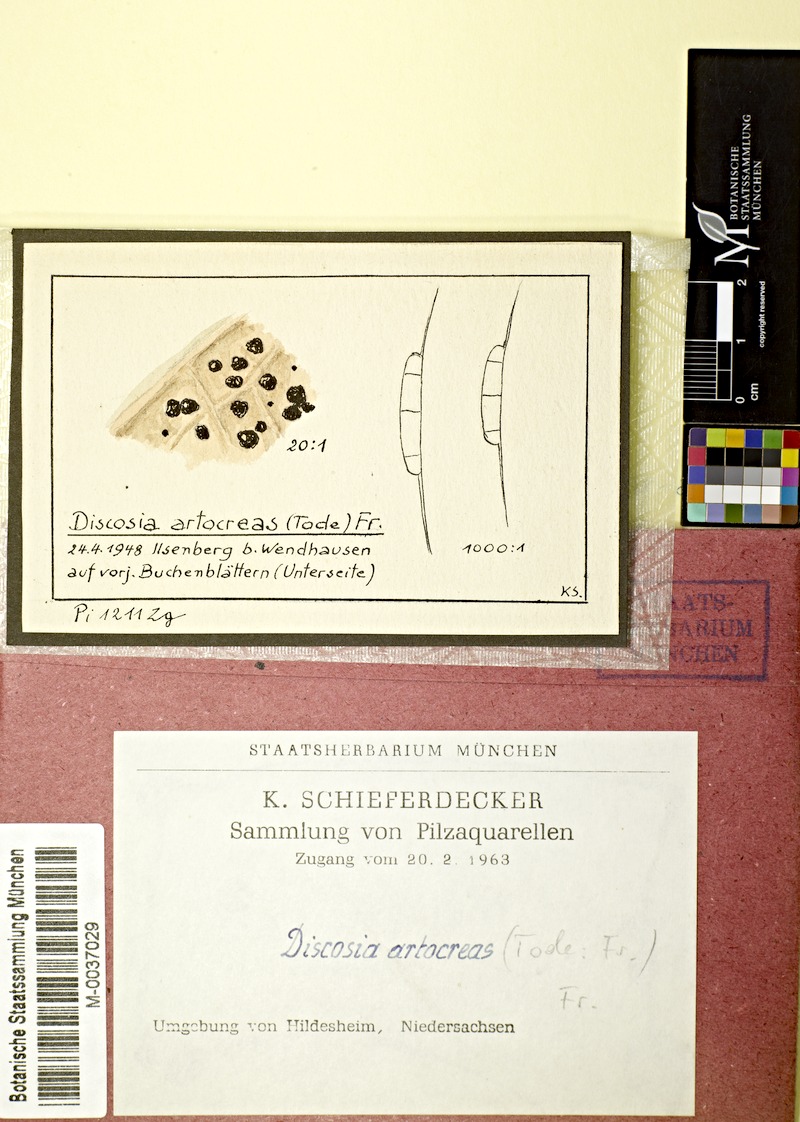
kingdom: Fungi
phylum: Ascomycota
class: Sordariomycetes
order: Amphisphaeriales
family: Discosiaceae
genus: Discosia
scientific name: Discosia artocreas
